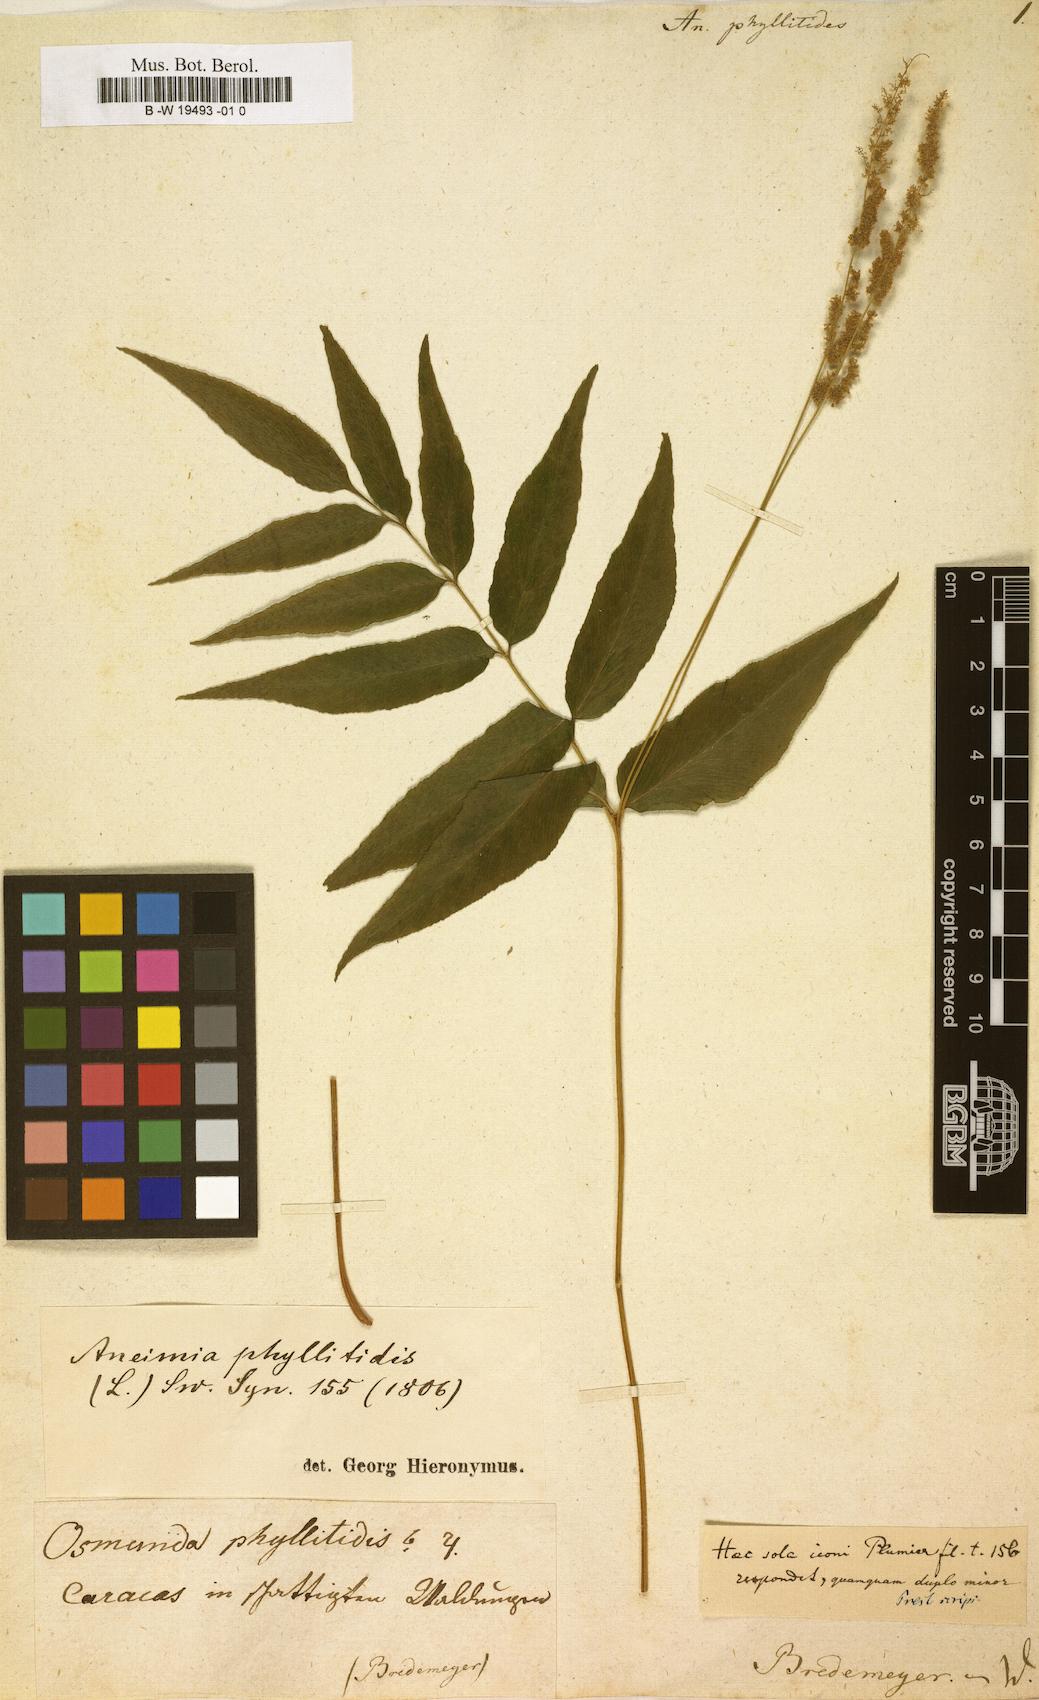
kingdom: Plantae
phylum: Tracheophyta
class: Polypodiopsida
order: Schizaeales
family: Anemiaceae
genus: Anemia
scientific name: Anemia phyllitidis
